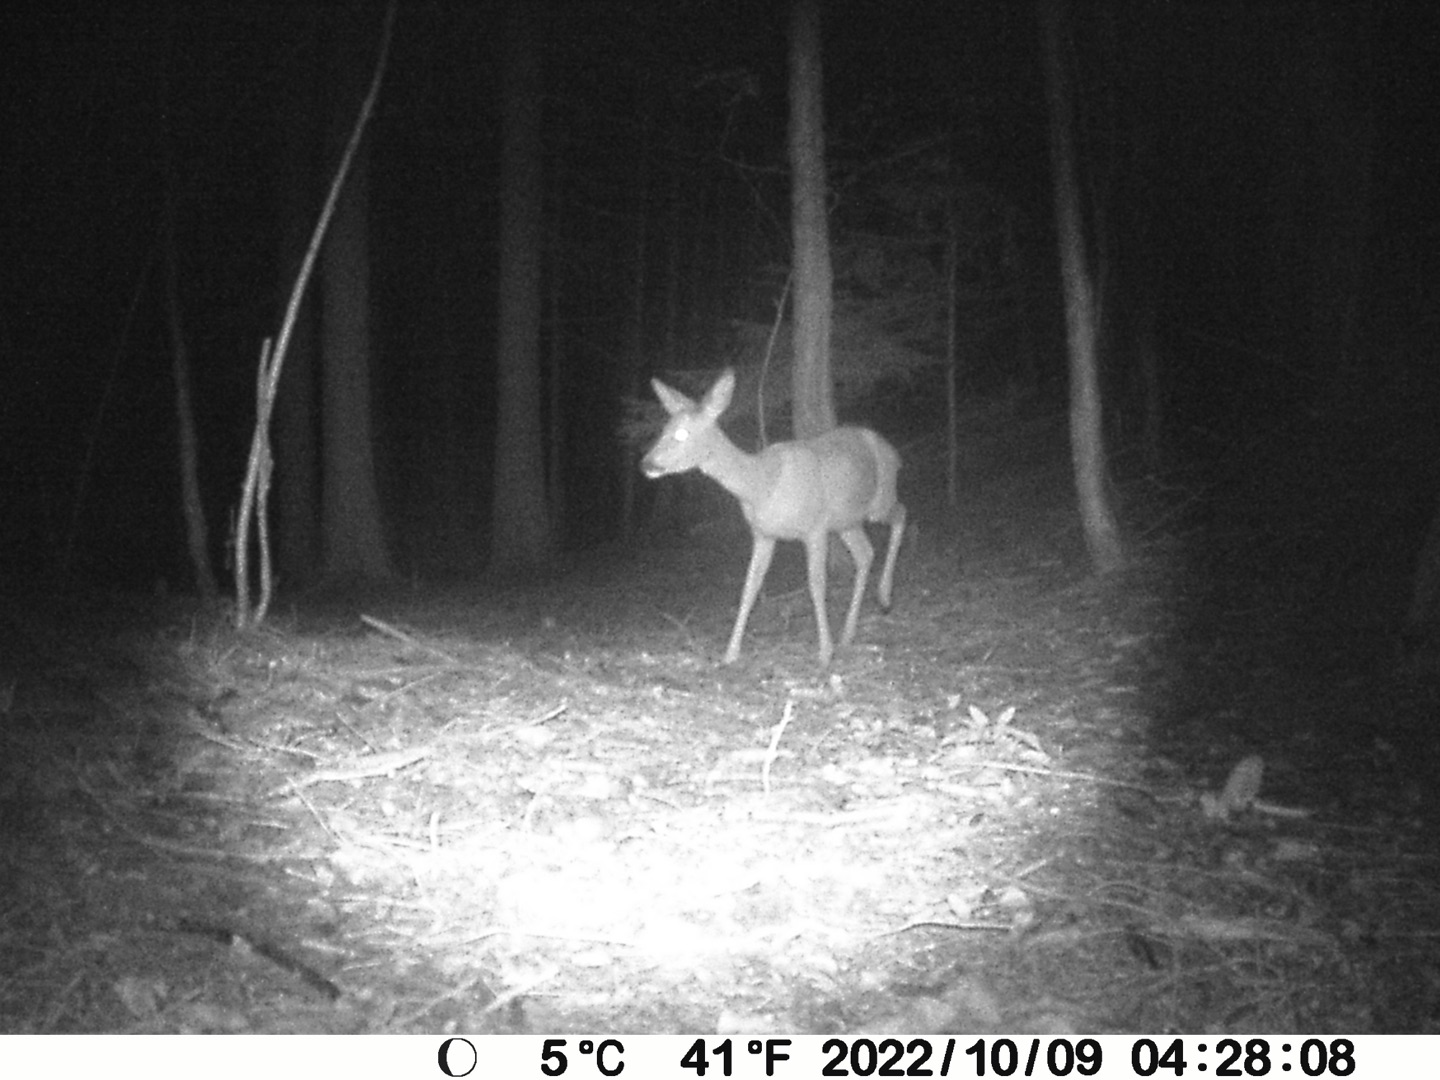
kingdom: Animalia
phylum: Chordata
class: Mammalia
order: Artiodactyla
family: Cervidae
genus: Capreolus
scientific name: Capreolus capreolus
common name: Rådyr
